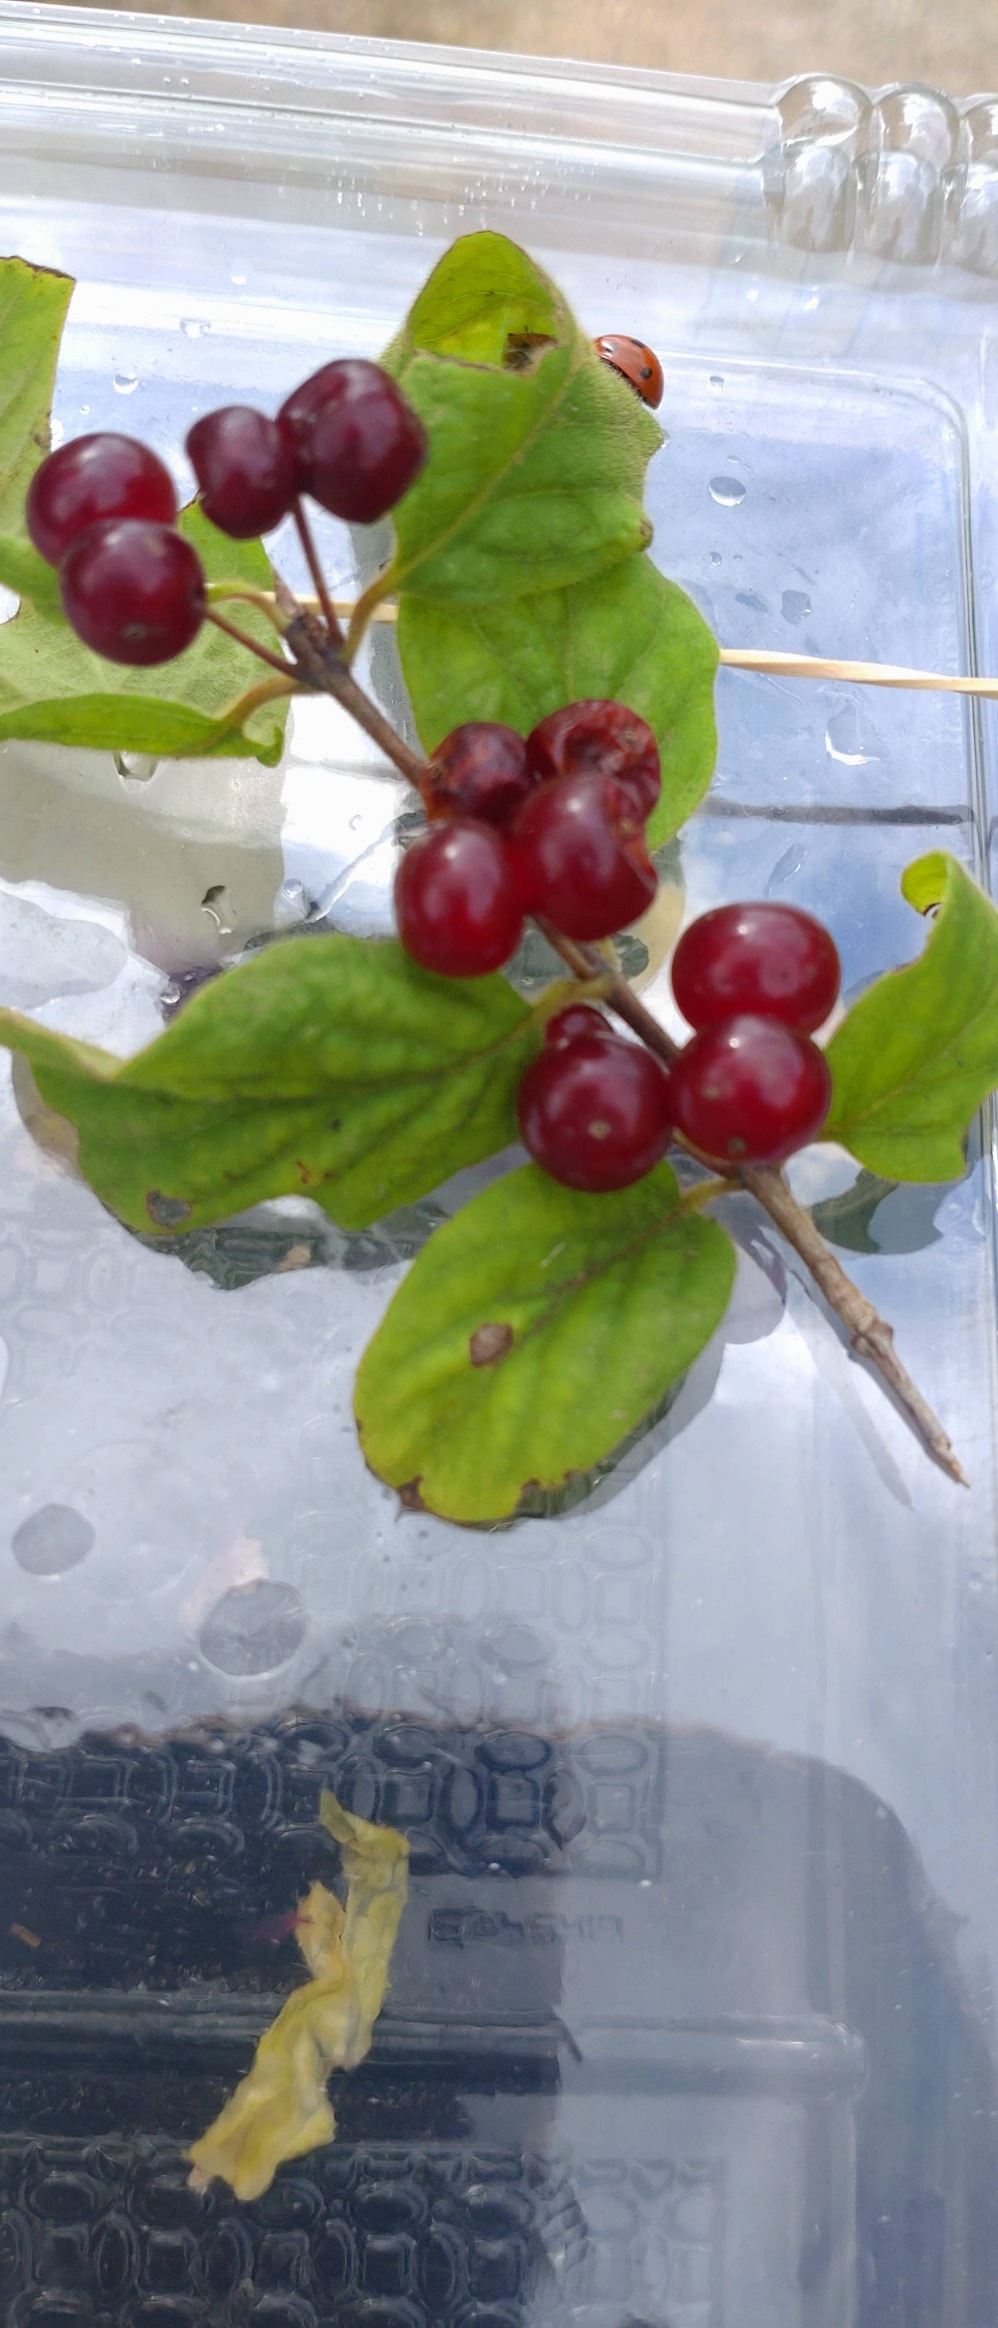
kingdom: Plantae
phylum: Tracheophyta
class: Magnoliopsida
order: Dipsacales
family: Caprifoliaceae
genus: Lonicera
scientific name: Lonicera xylosteum
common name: Dunet gedeblad
